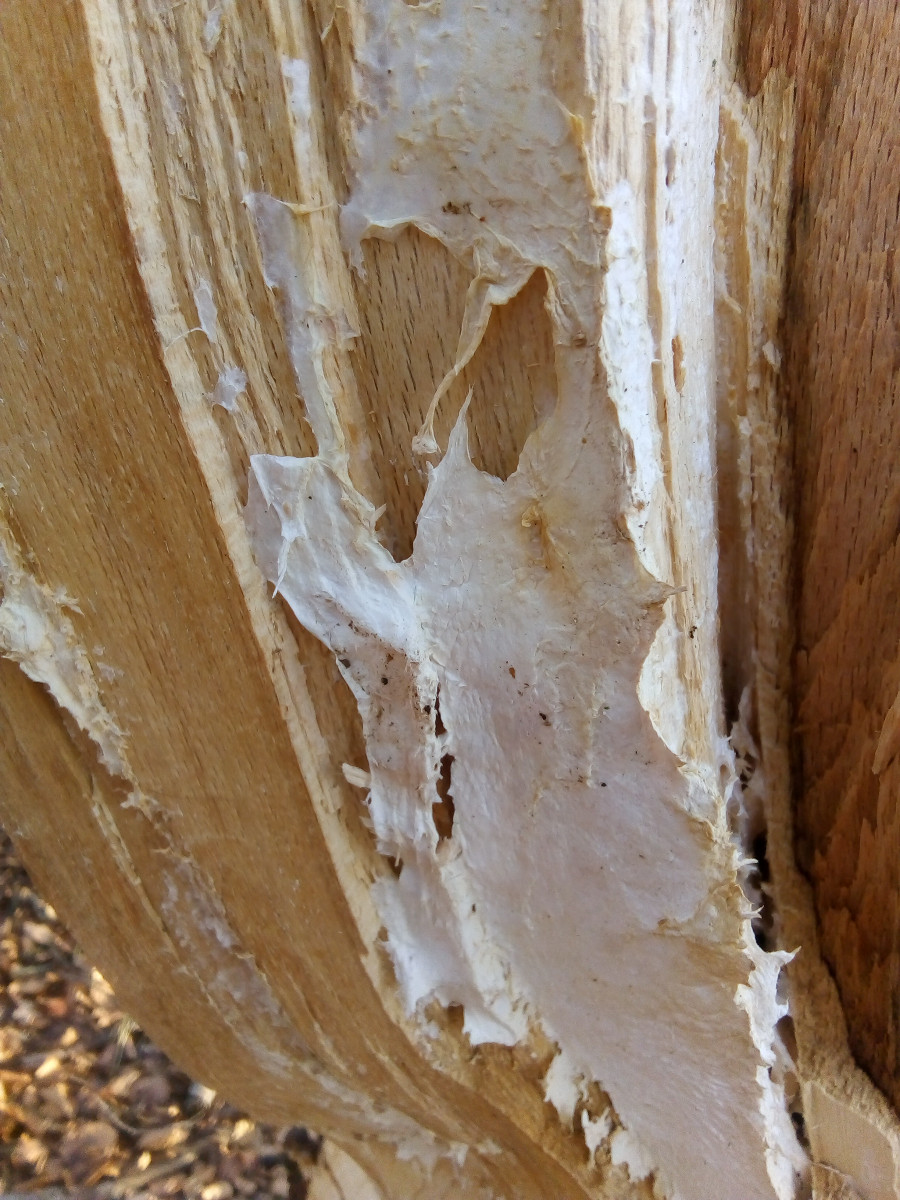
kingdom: Fungi
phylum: Basidiomycota
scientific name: Basidiomycota
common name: basidiesvampe
